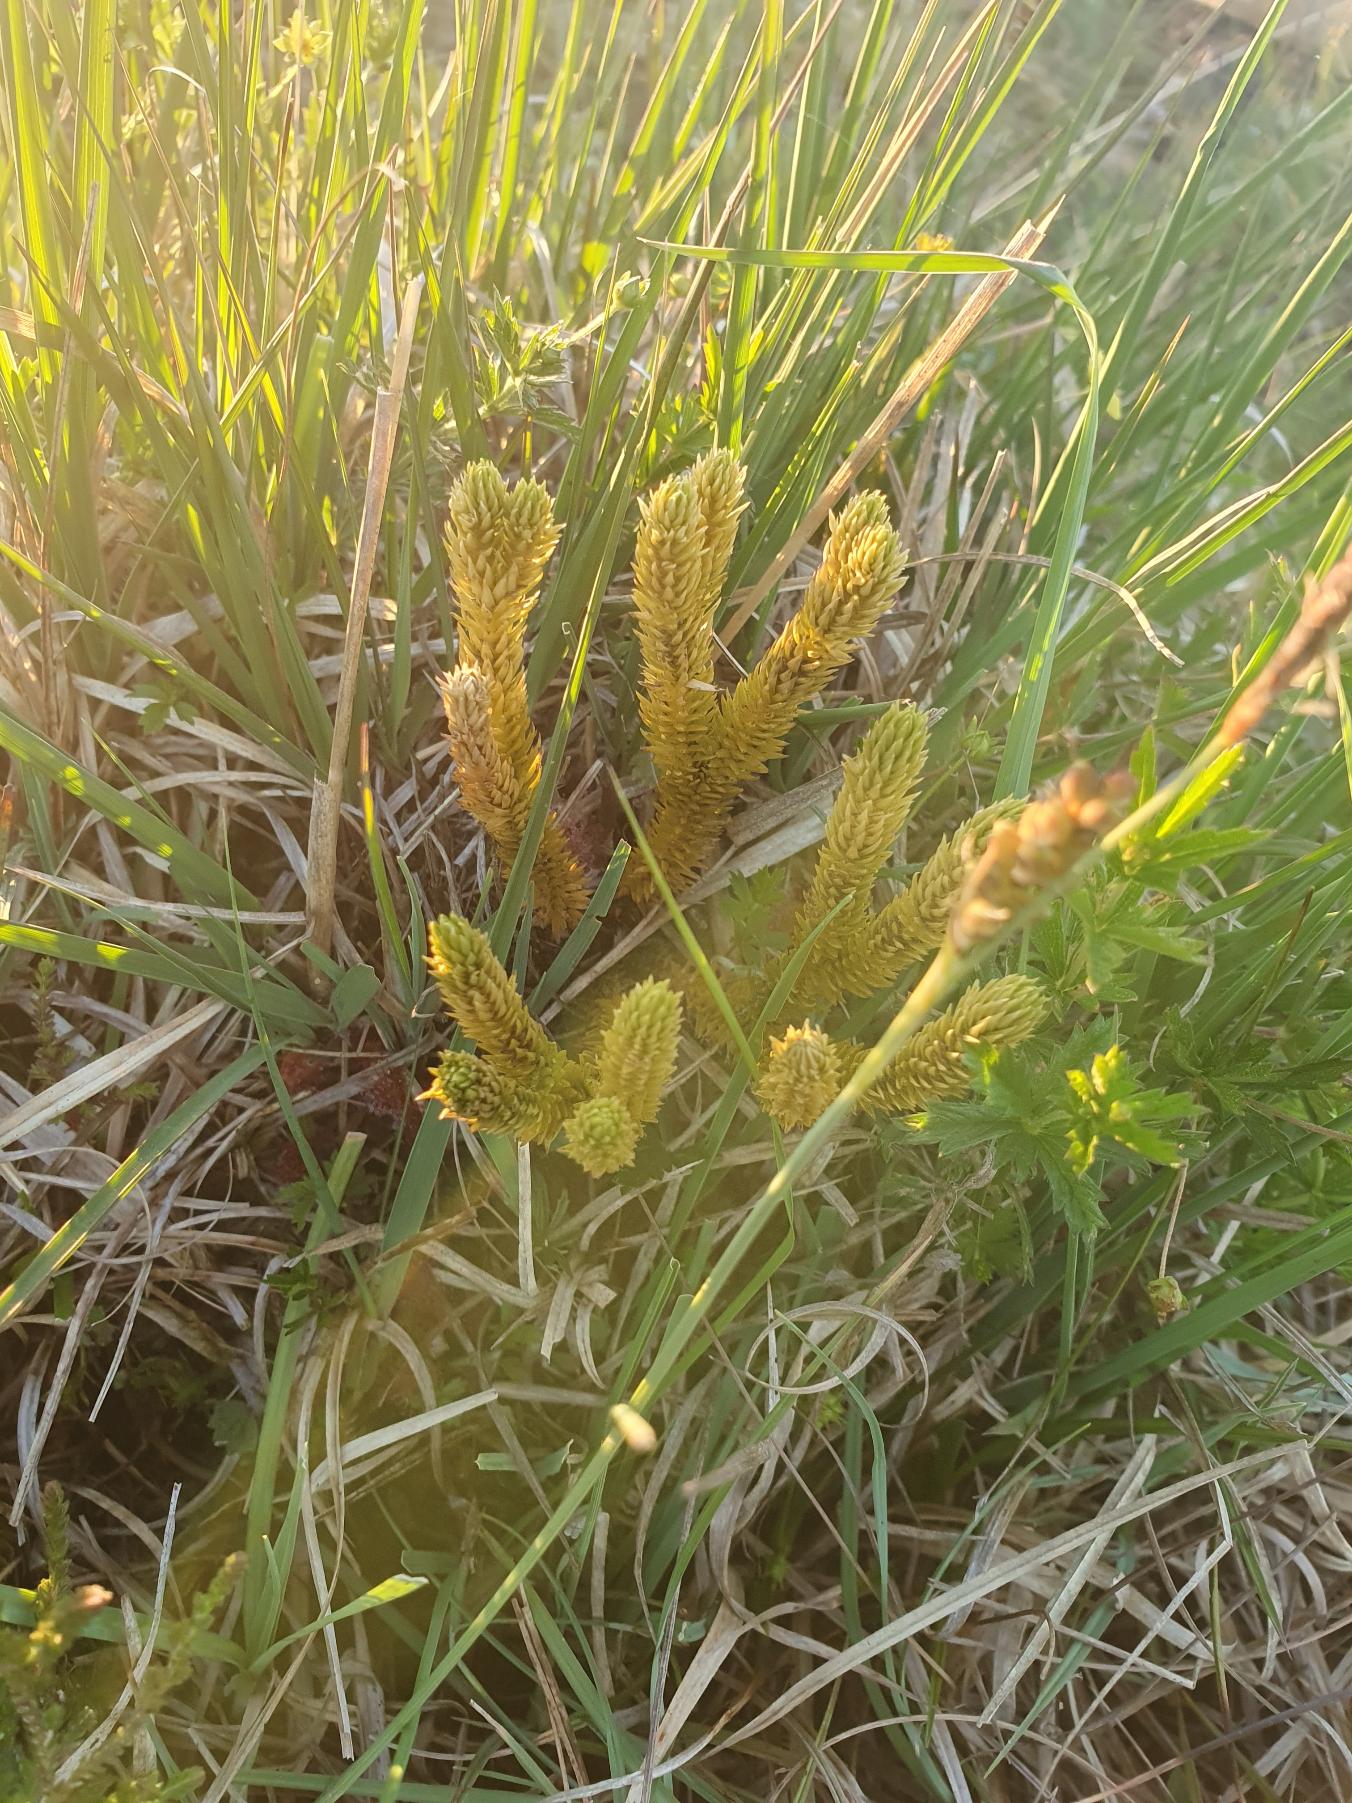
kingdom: Plantae
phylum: Tracheophyta
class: Lycopodiopsida
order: Lycopodiales
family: Lycopodiaceae
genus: Huperzia
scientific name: Huperzia selago
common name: Otteradet ulvefod
